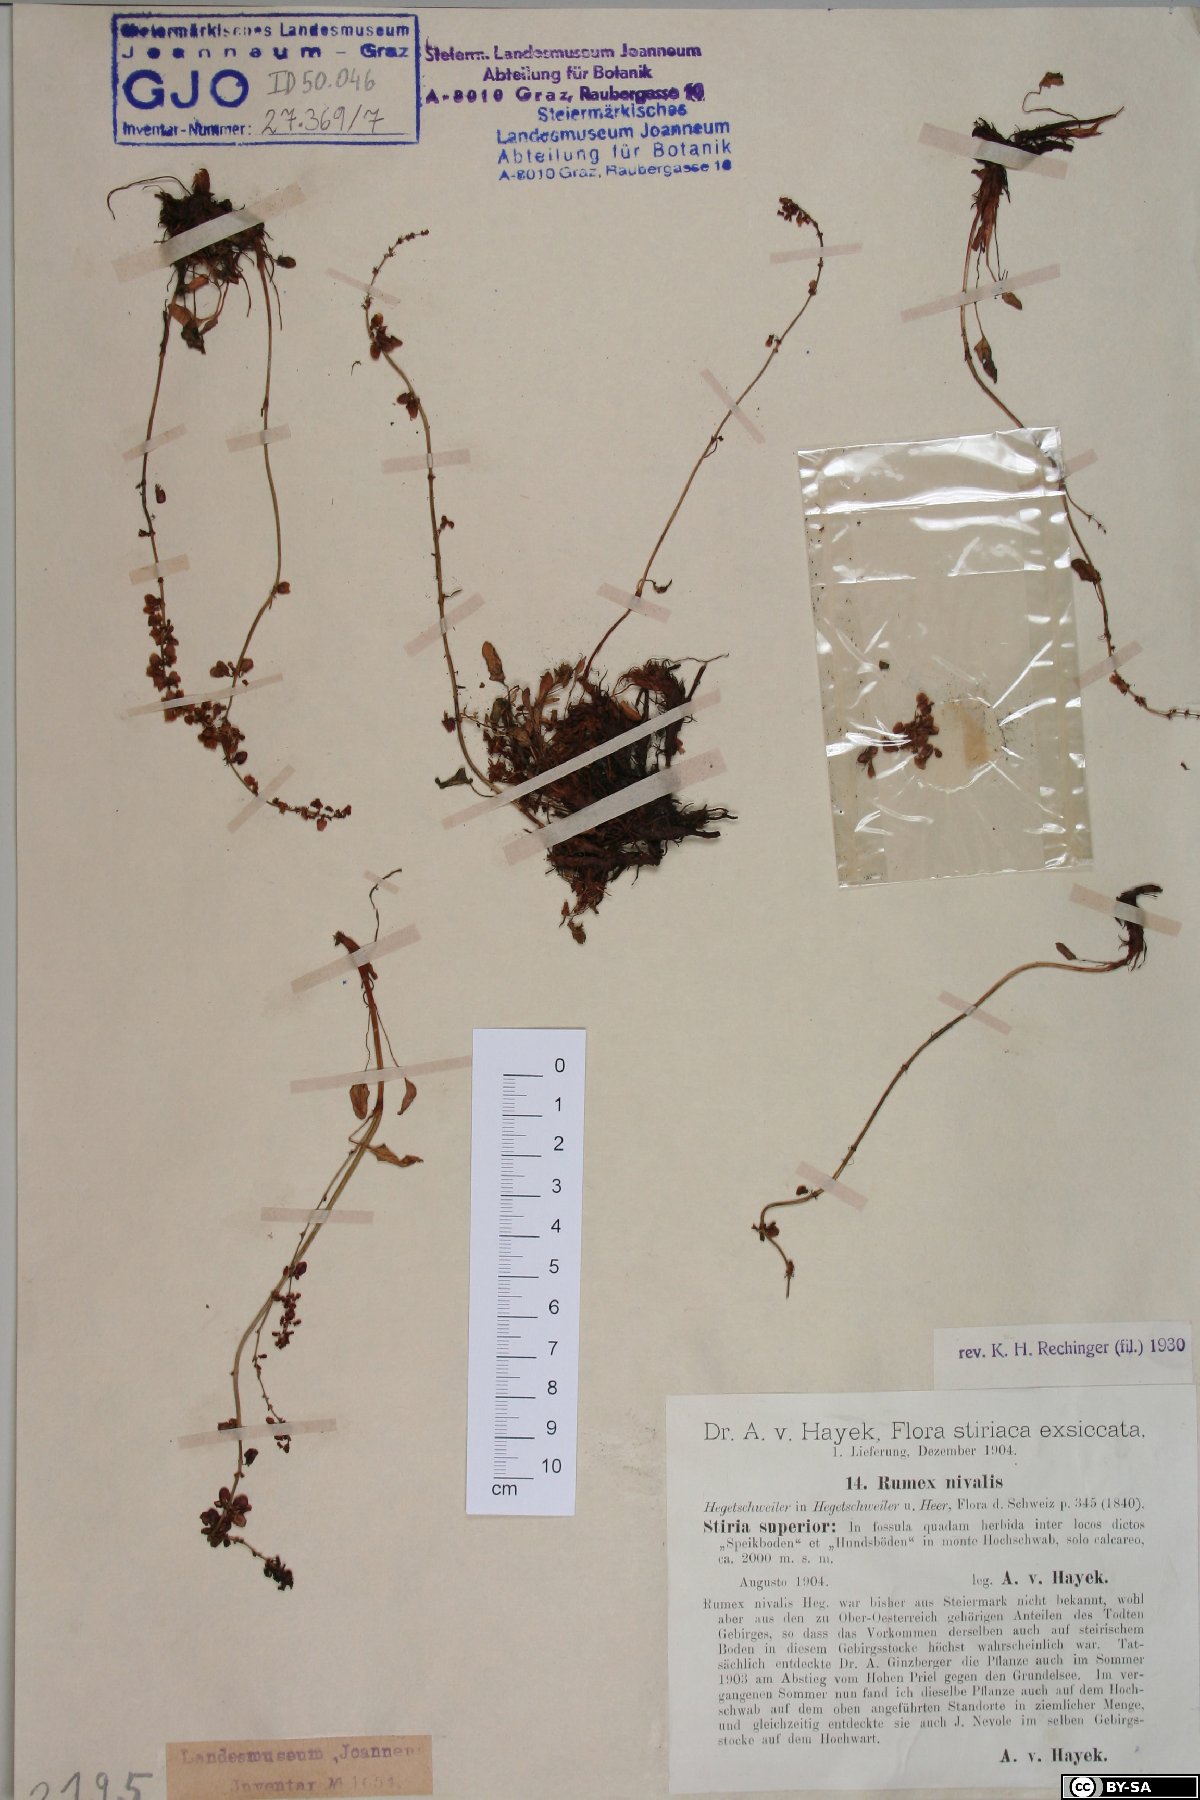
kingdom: Plantae
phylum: Tracheophyta
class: Magnoliopsida
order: Caryophyllales
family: Polygonaceae
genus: Rumex
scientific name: Rumex nivalis
